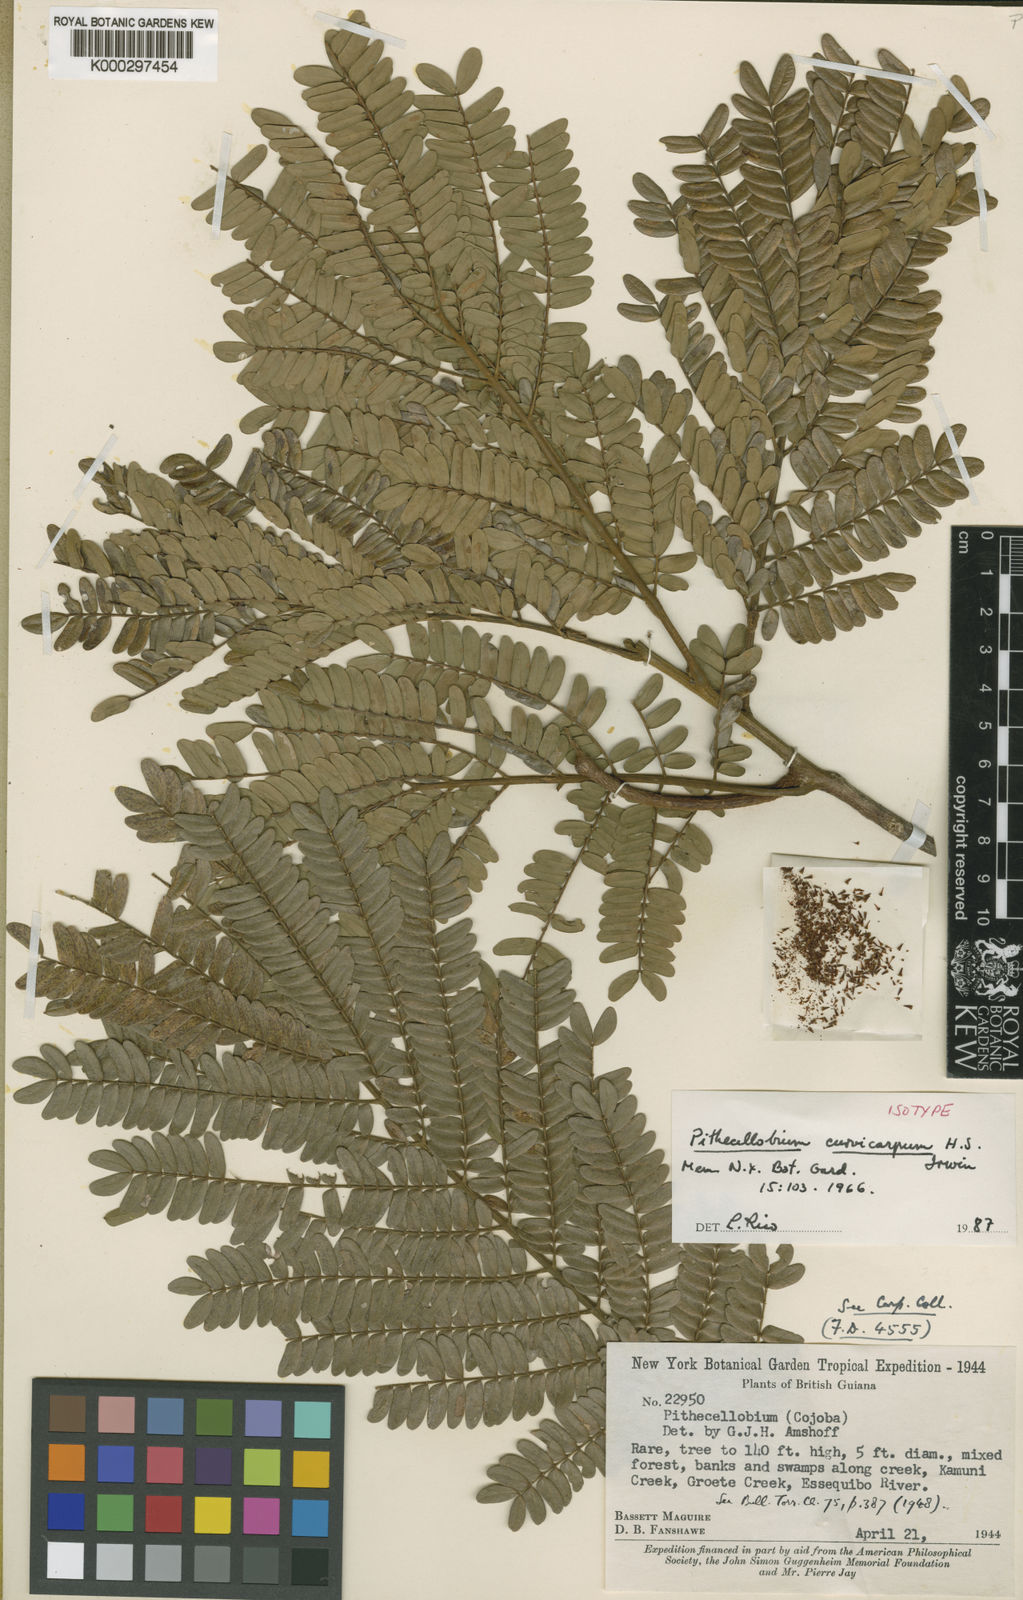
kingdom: Plantae
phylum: Tracheophyta
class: Magnoliopsida
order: Fabales
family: Fabaceae
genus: Jupunba
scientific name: Jupunba curvicarpa
